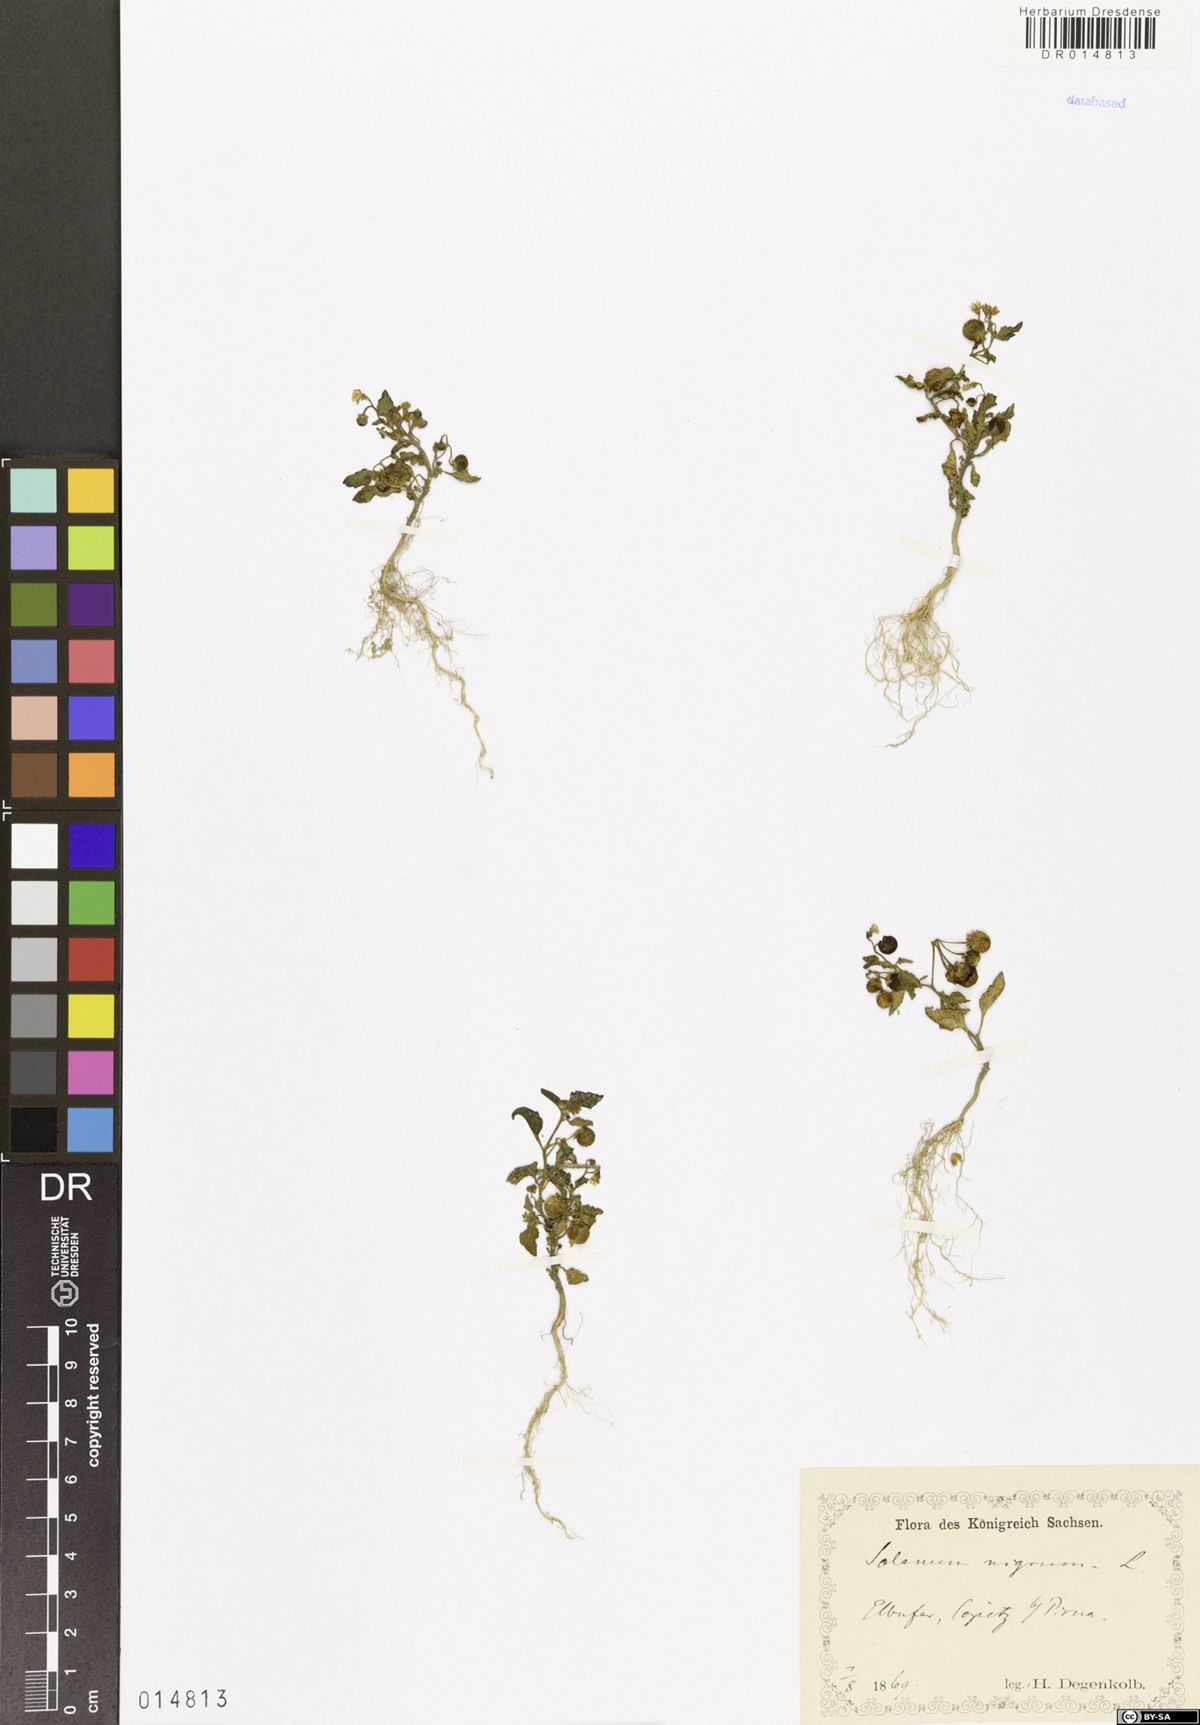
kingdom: Plantae
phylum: Tracheophyta
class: Magnoliopsida
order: Solanales
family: Solanaceae
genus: Solanum
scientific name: Solanum nigrum
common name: Black nightshade
